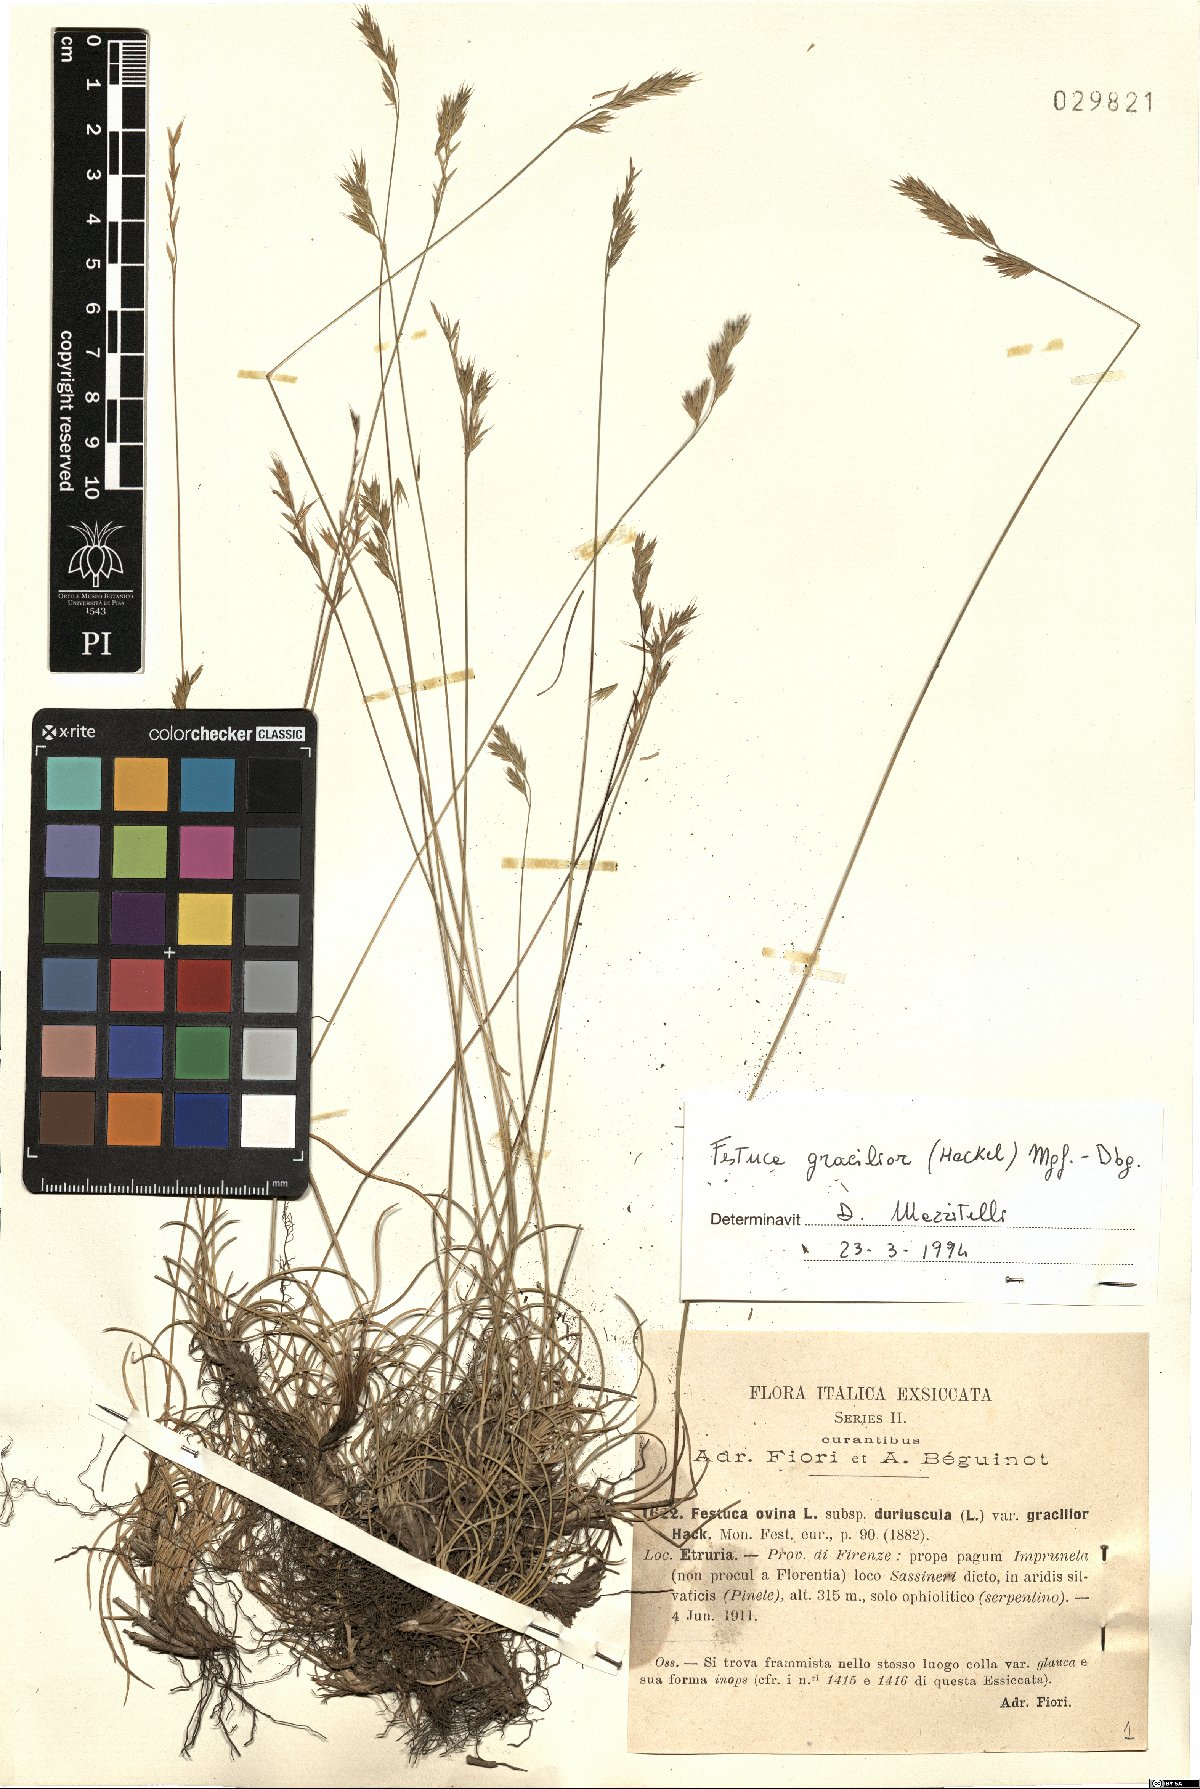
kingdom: Plantae
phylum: Tracheophyta
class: Liliopsida
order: Poales
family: Poaceae
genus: Festuca
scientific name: Festuca gracilior
